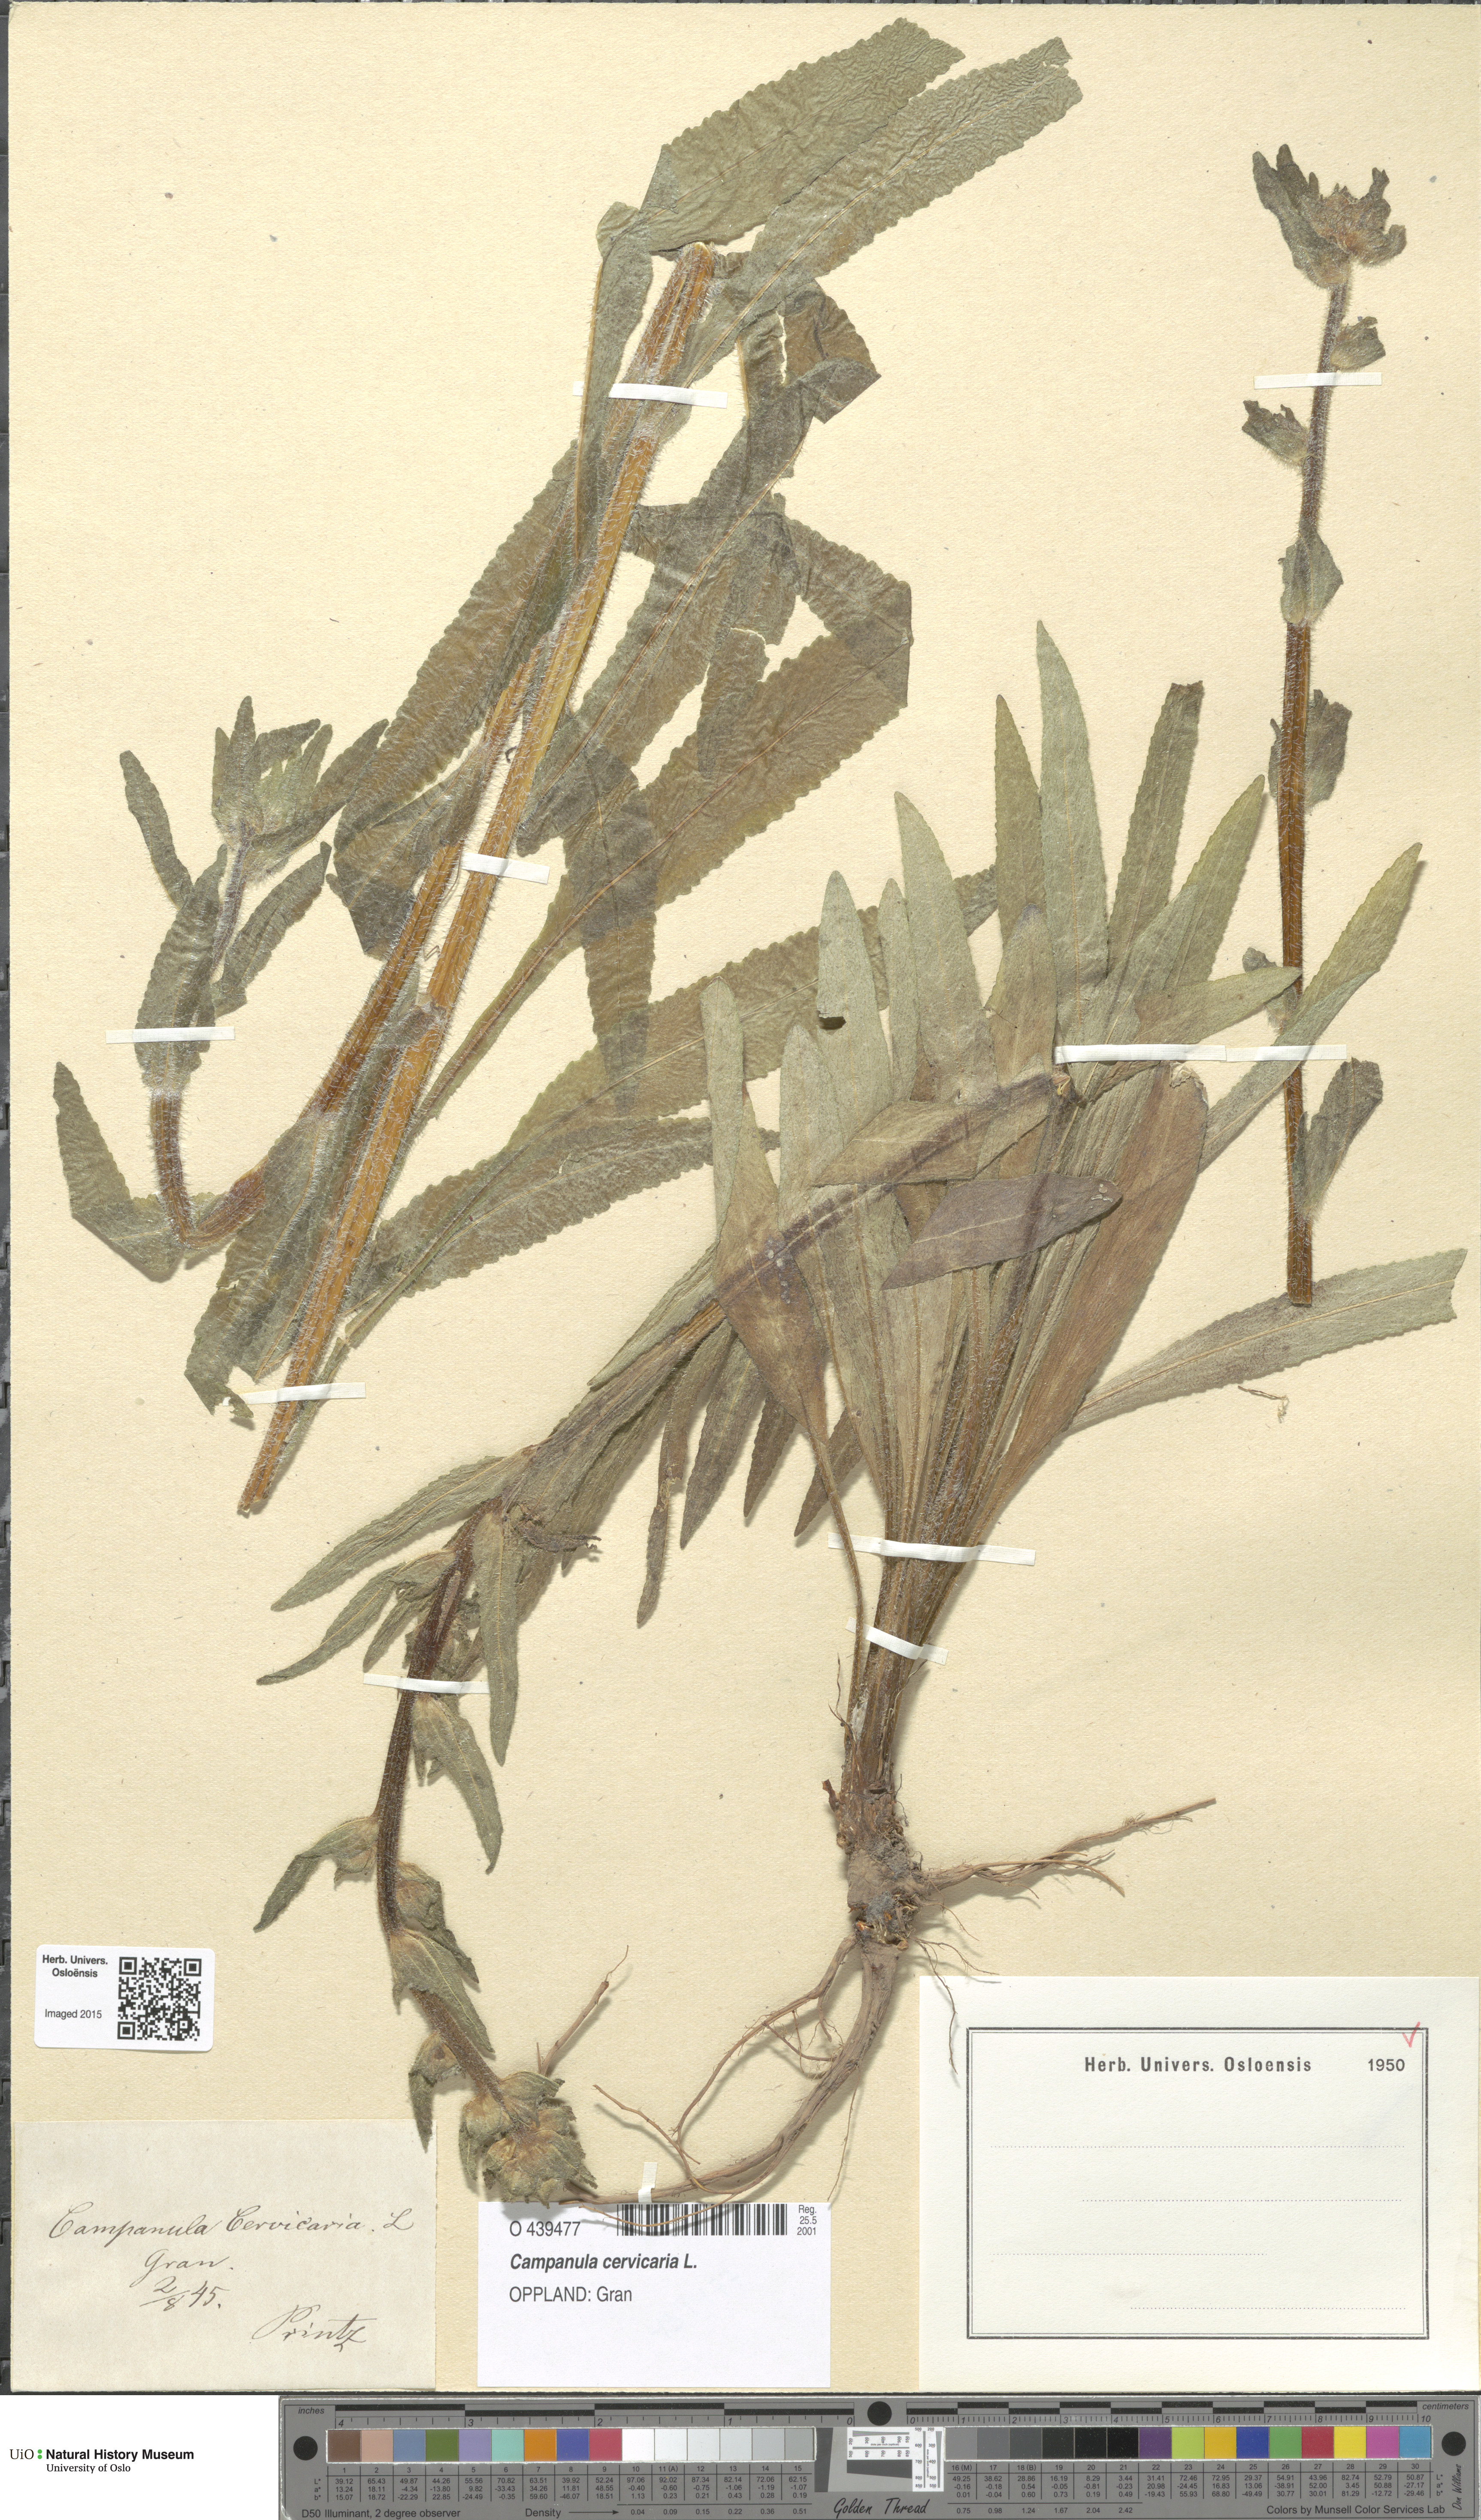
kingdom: Plantae
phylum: Tracheophyta
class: Magnoliopsida
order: Asterales
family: Campanulaceae
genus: Campanula
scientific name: Campanula cervicaria
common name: Bristly bellflower
